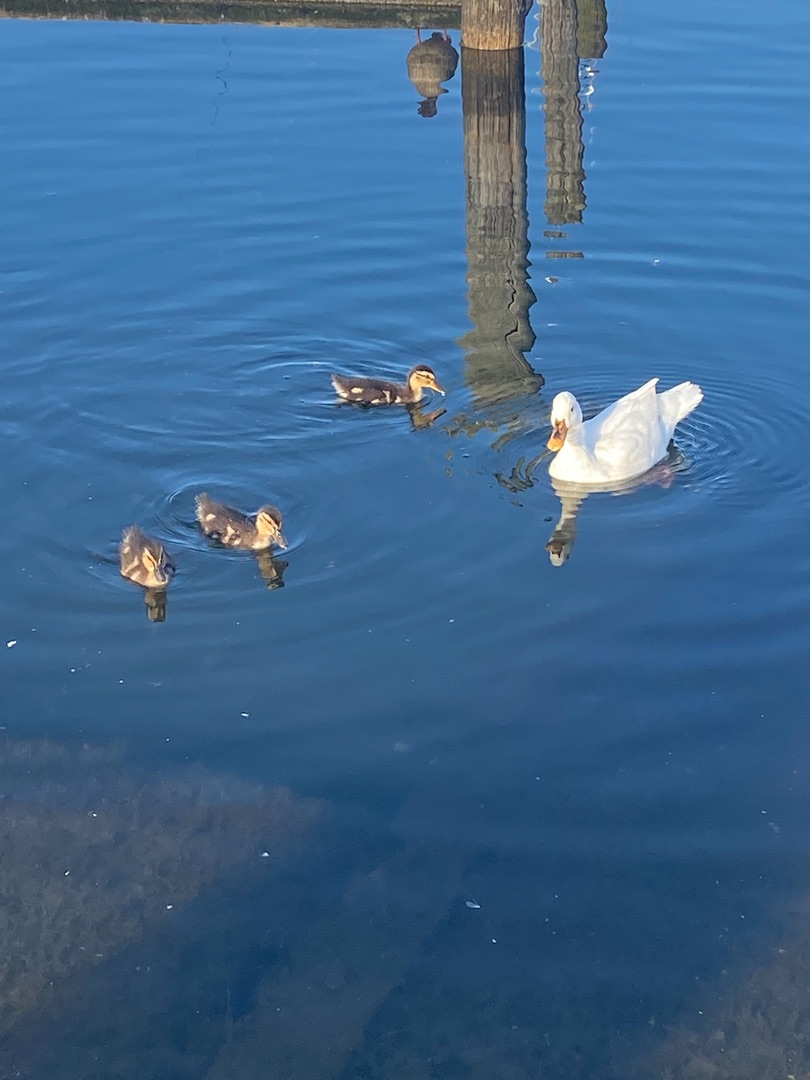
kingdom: Animalia
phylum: Chordata
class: Aves
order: Anseriformes
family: Anatidae
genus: Anas
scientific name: Anas platyrhynchos
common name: Gråand
